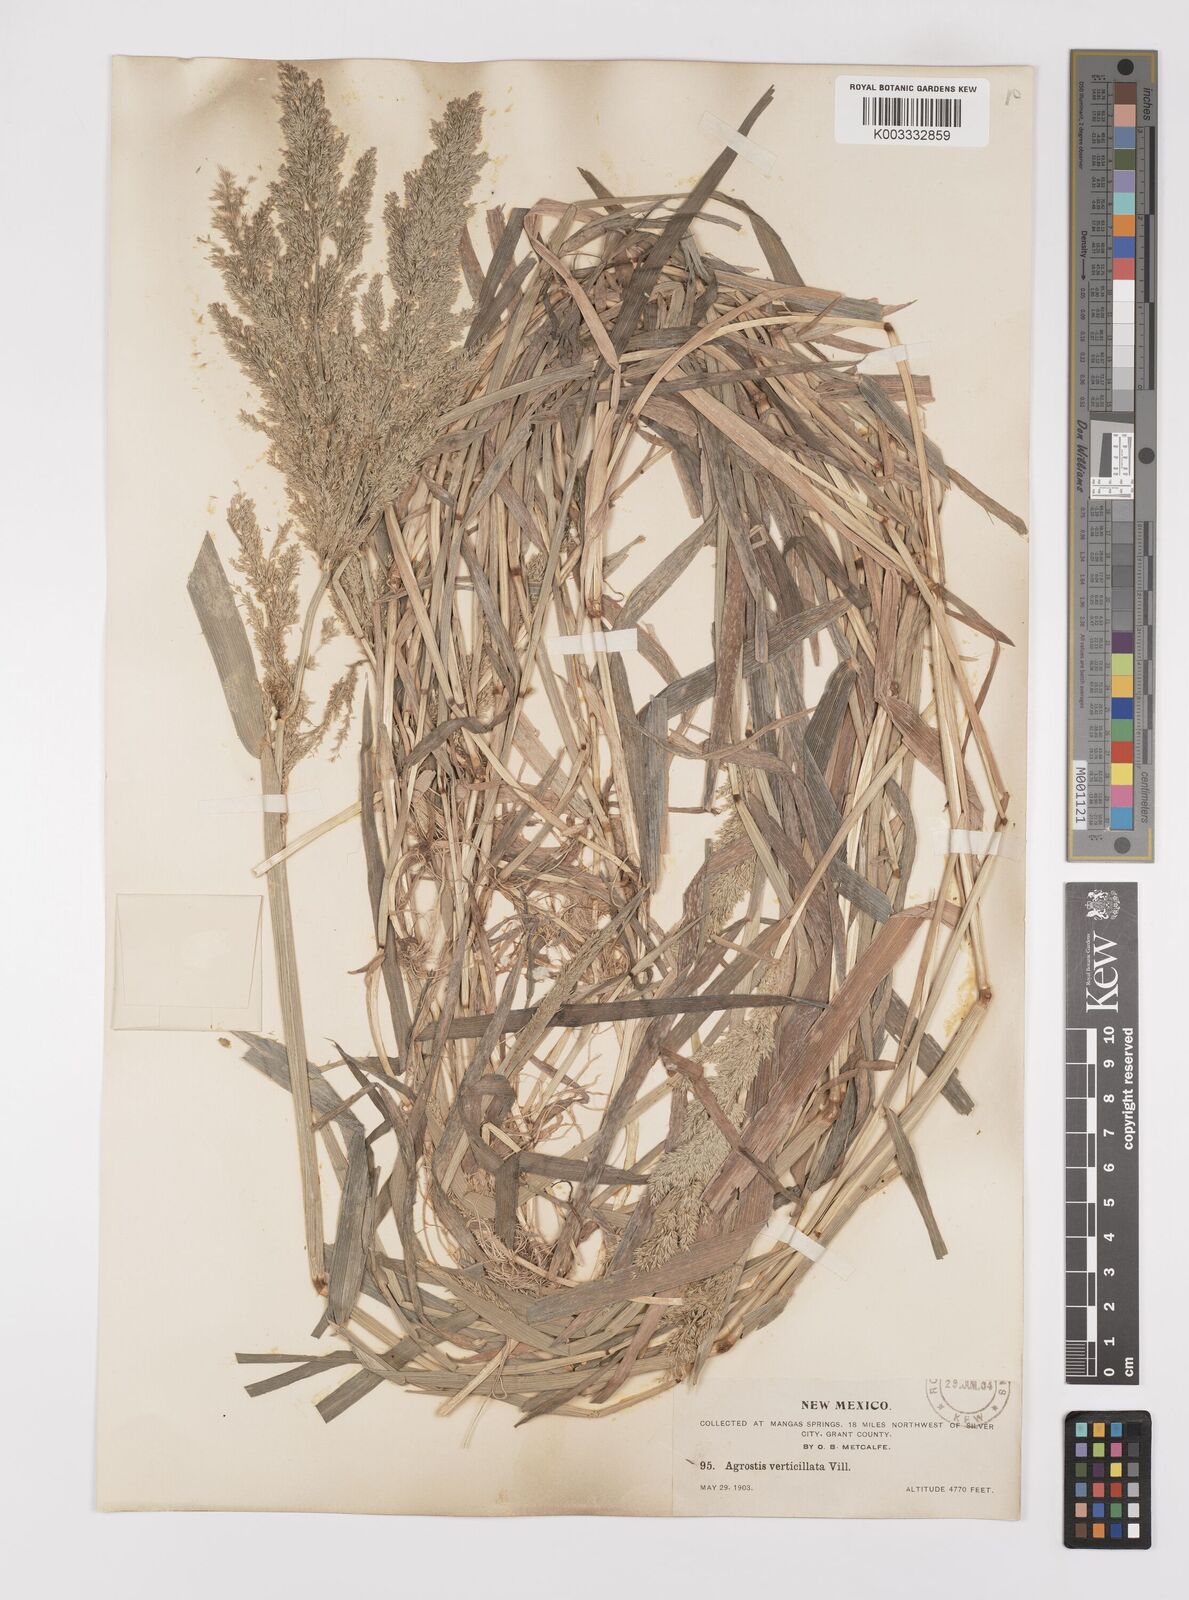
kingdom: Plantae
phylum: Tracheophyta
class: Liliopsida
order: Poales
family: Poaceae
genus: Polypogon
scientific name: Polypogon viridis
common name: Water bent
